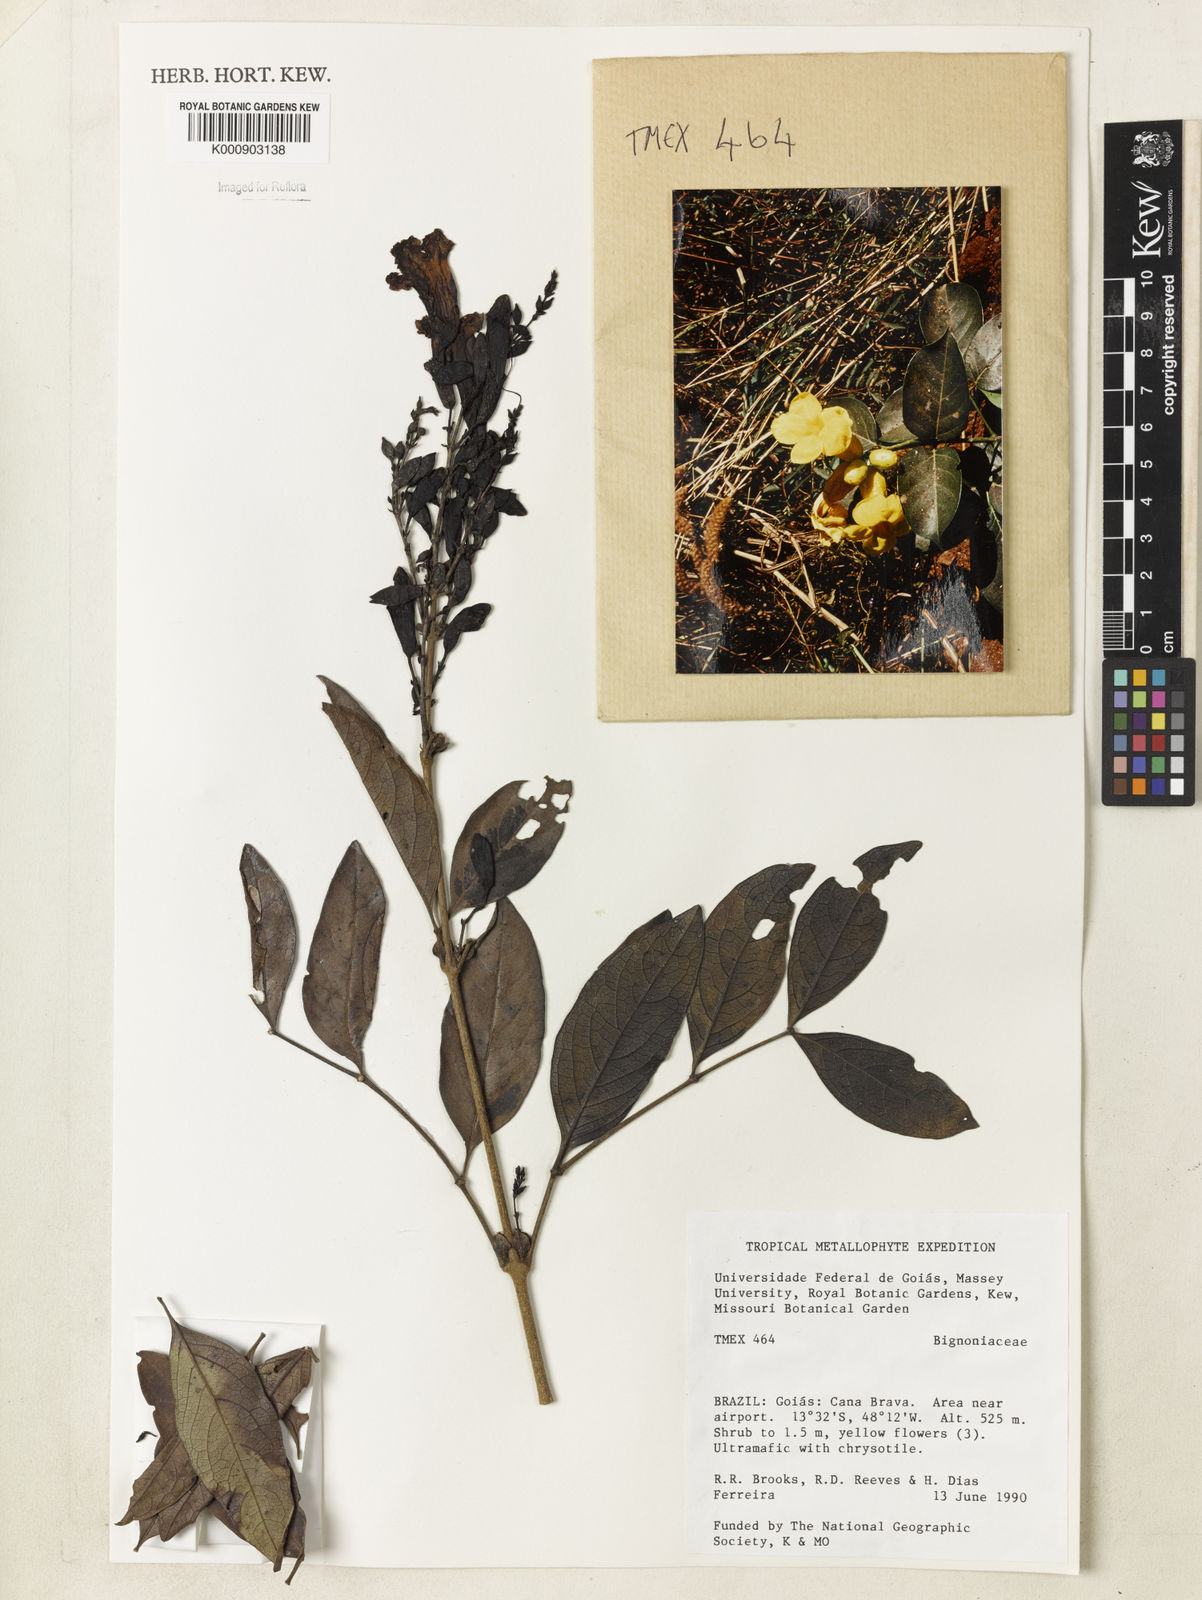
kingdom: Plantae
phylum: Tracheophyta
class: Magnoliopsida
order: Lamiales
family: Bignoniaceae
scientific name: Bignoniaceae
